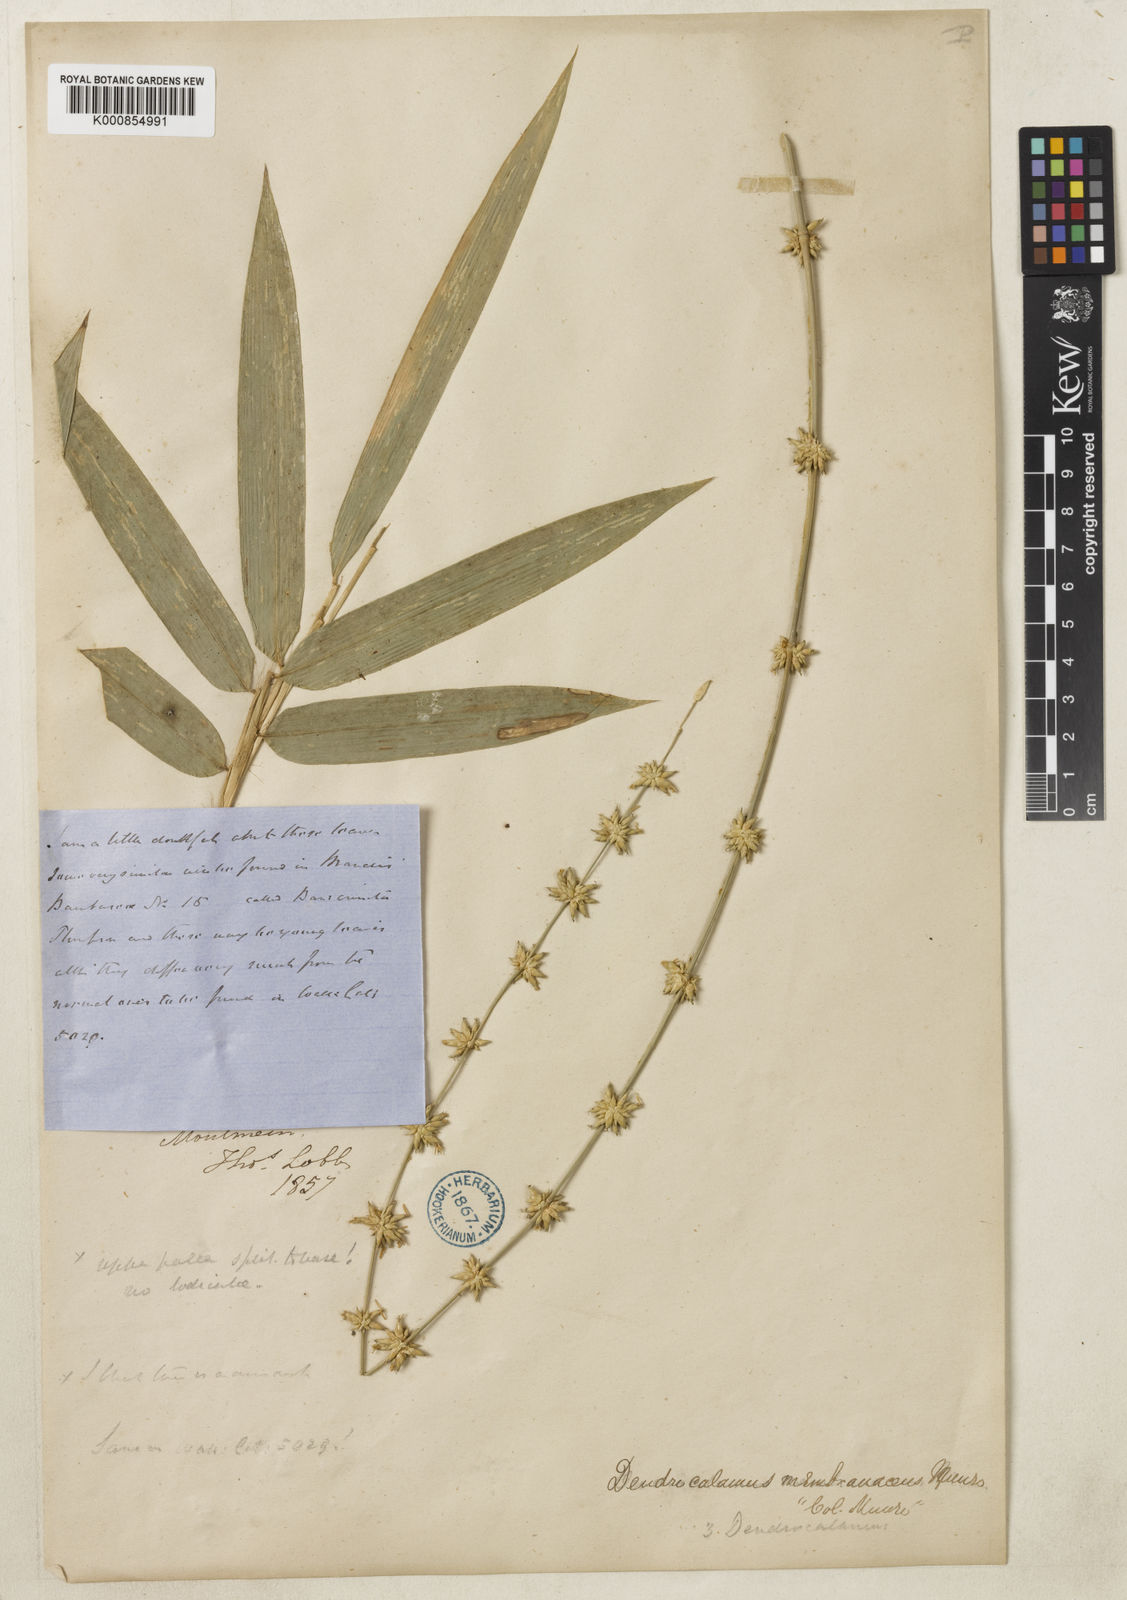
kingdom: Plantae
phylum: Tracheophyta
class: Liliopsida
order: Poales
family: Poaceae
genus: Dendrocalamus
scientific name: Dendrocalamus membranaceus
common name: White bamboo
